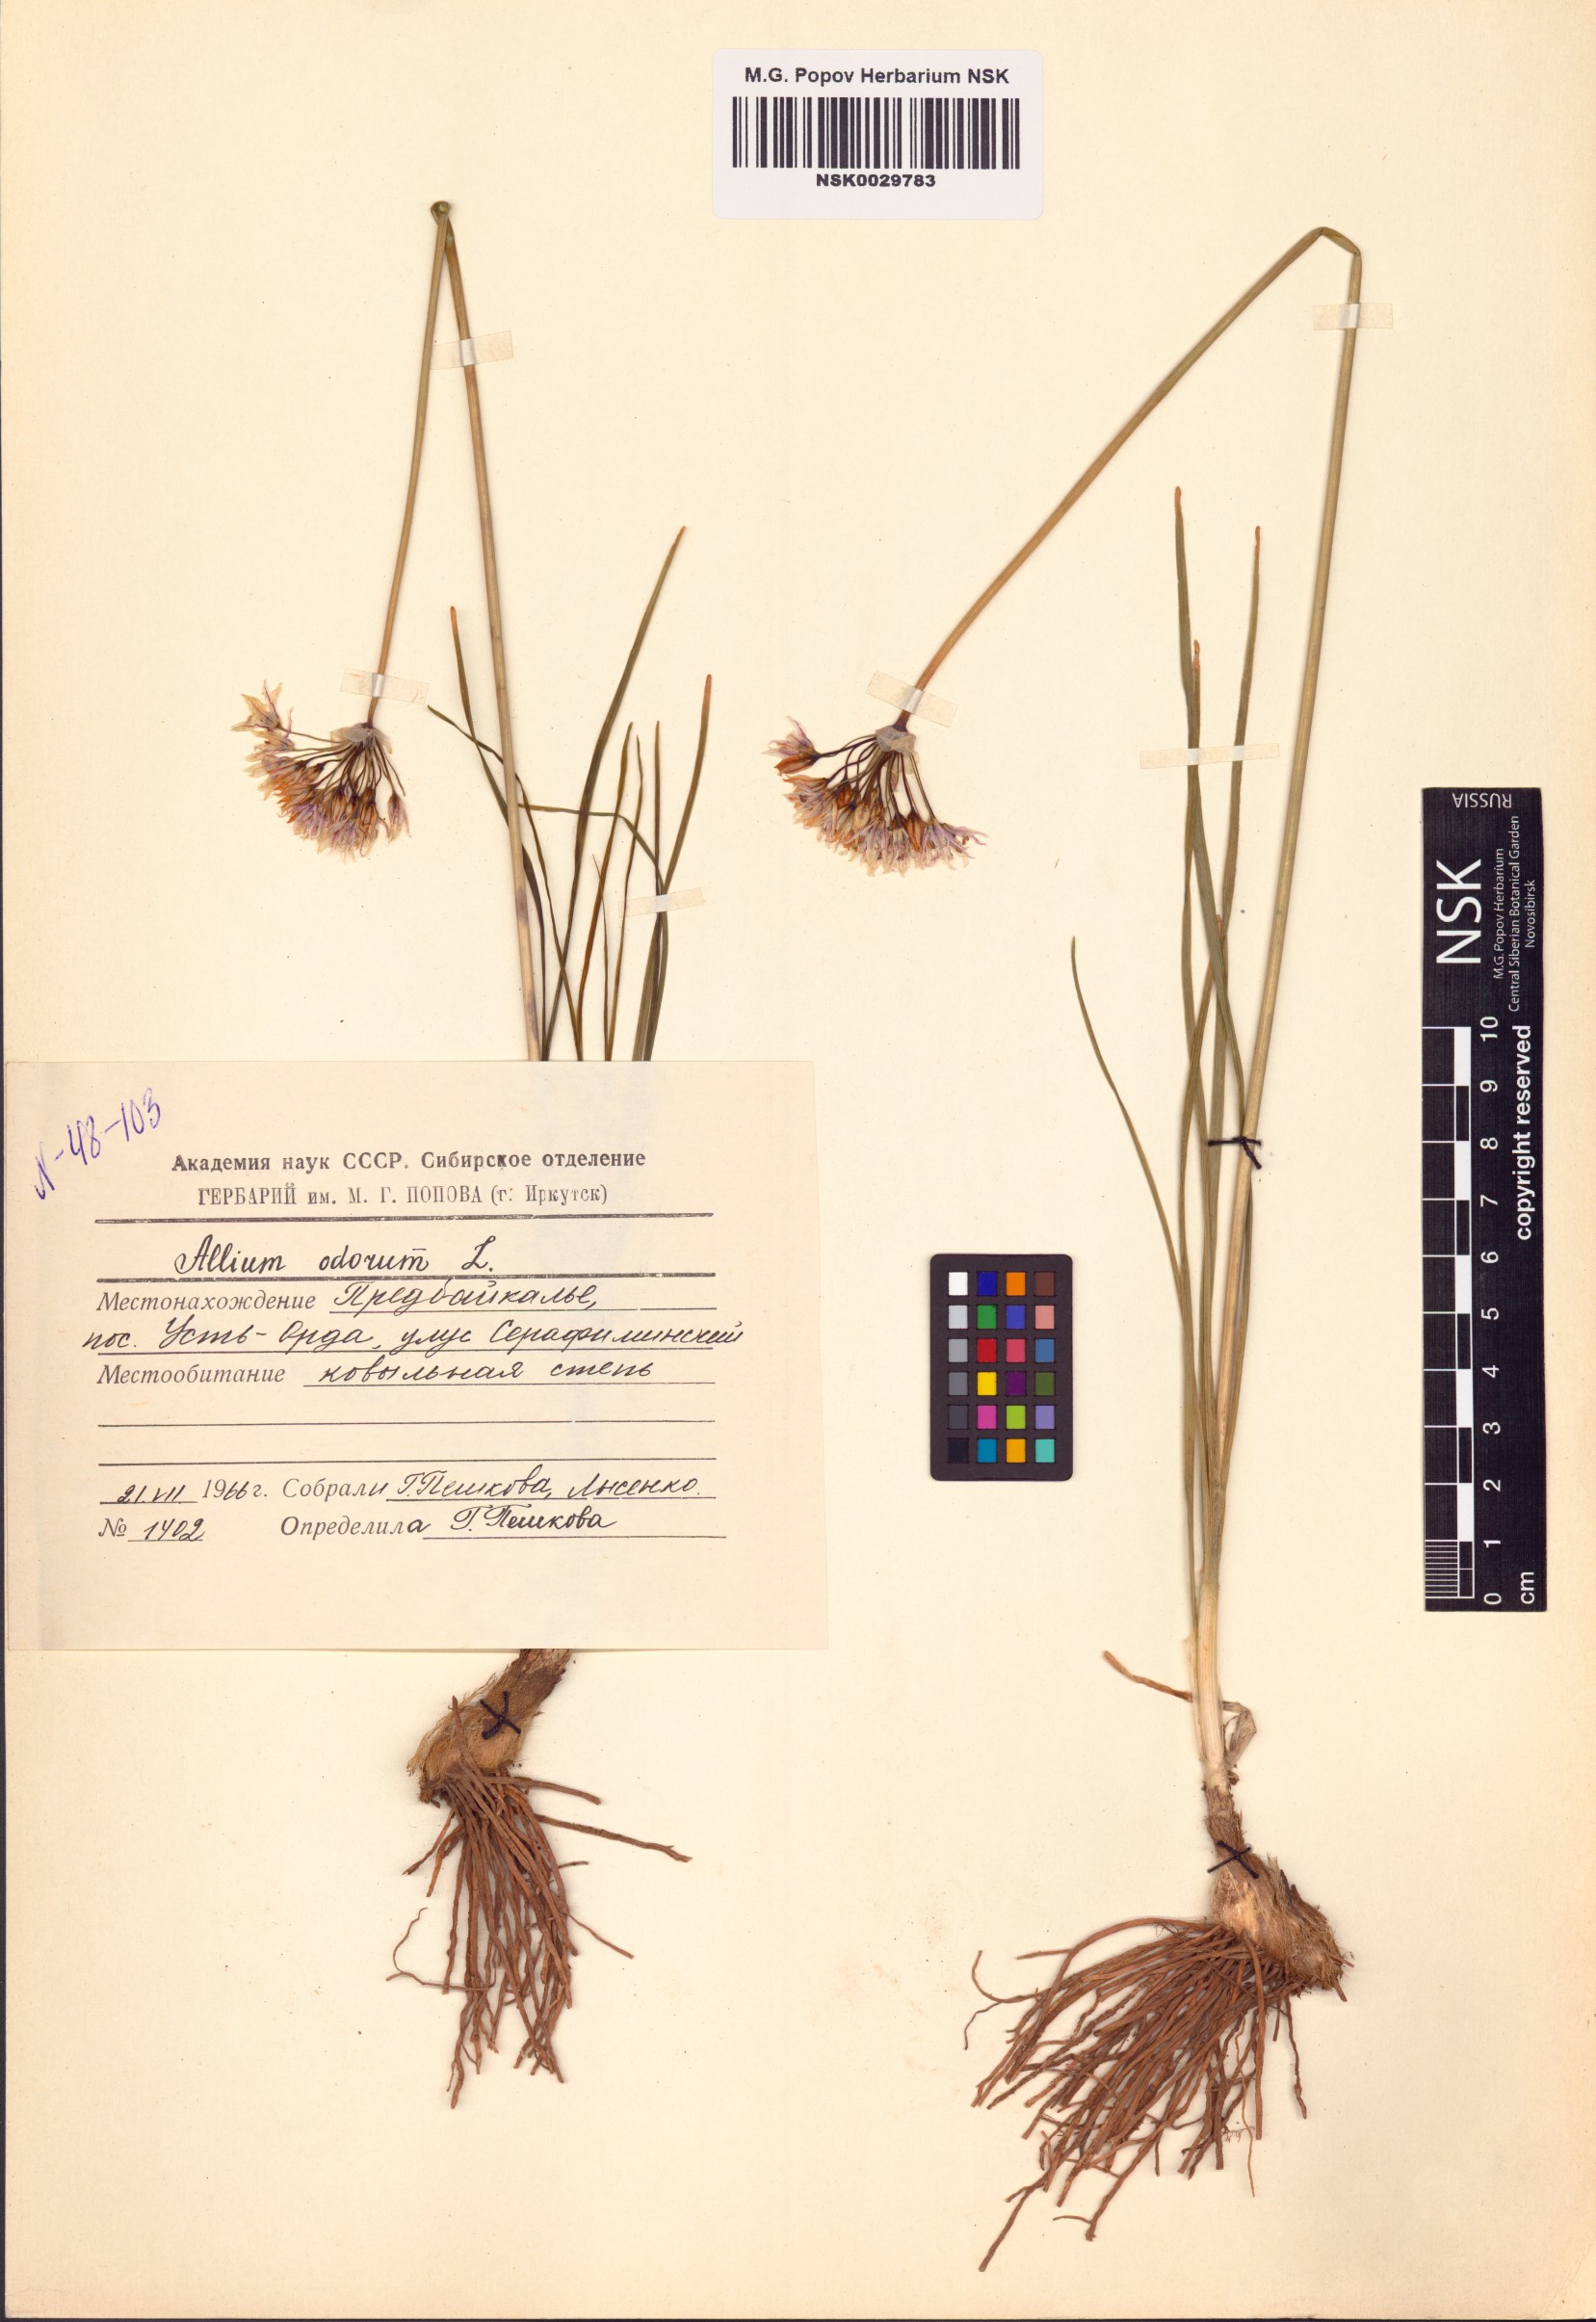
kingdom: Plantae
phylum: Tracheophyta
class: Liliopsida
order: Asparagales
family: Amaryllidaceae
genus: Allium
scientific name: Allium ramosum
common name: Fragrant garlic
